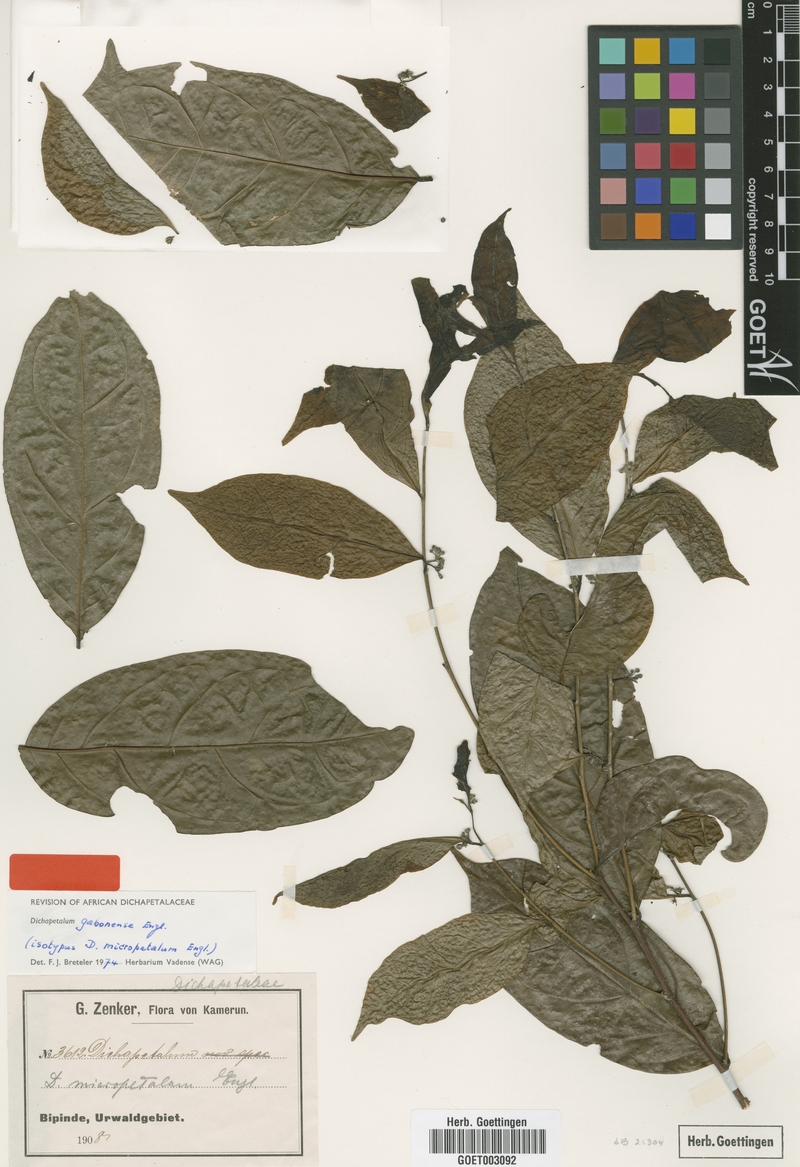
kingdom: Plantae
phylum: Tracheophyta
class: Magnoliopsida
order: Malpighiales
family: Dichapetalaceae
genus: Dichapetalum
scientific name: Dichapetalum gabonense
